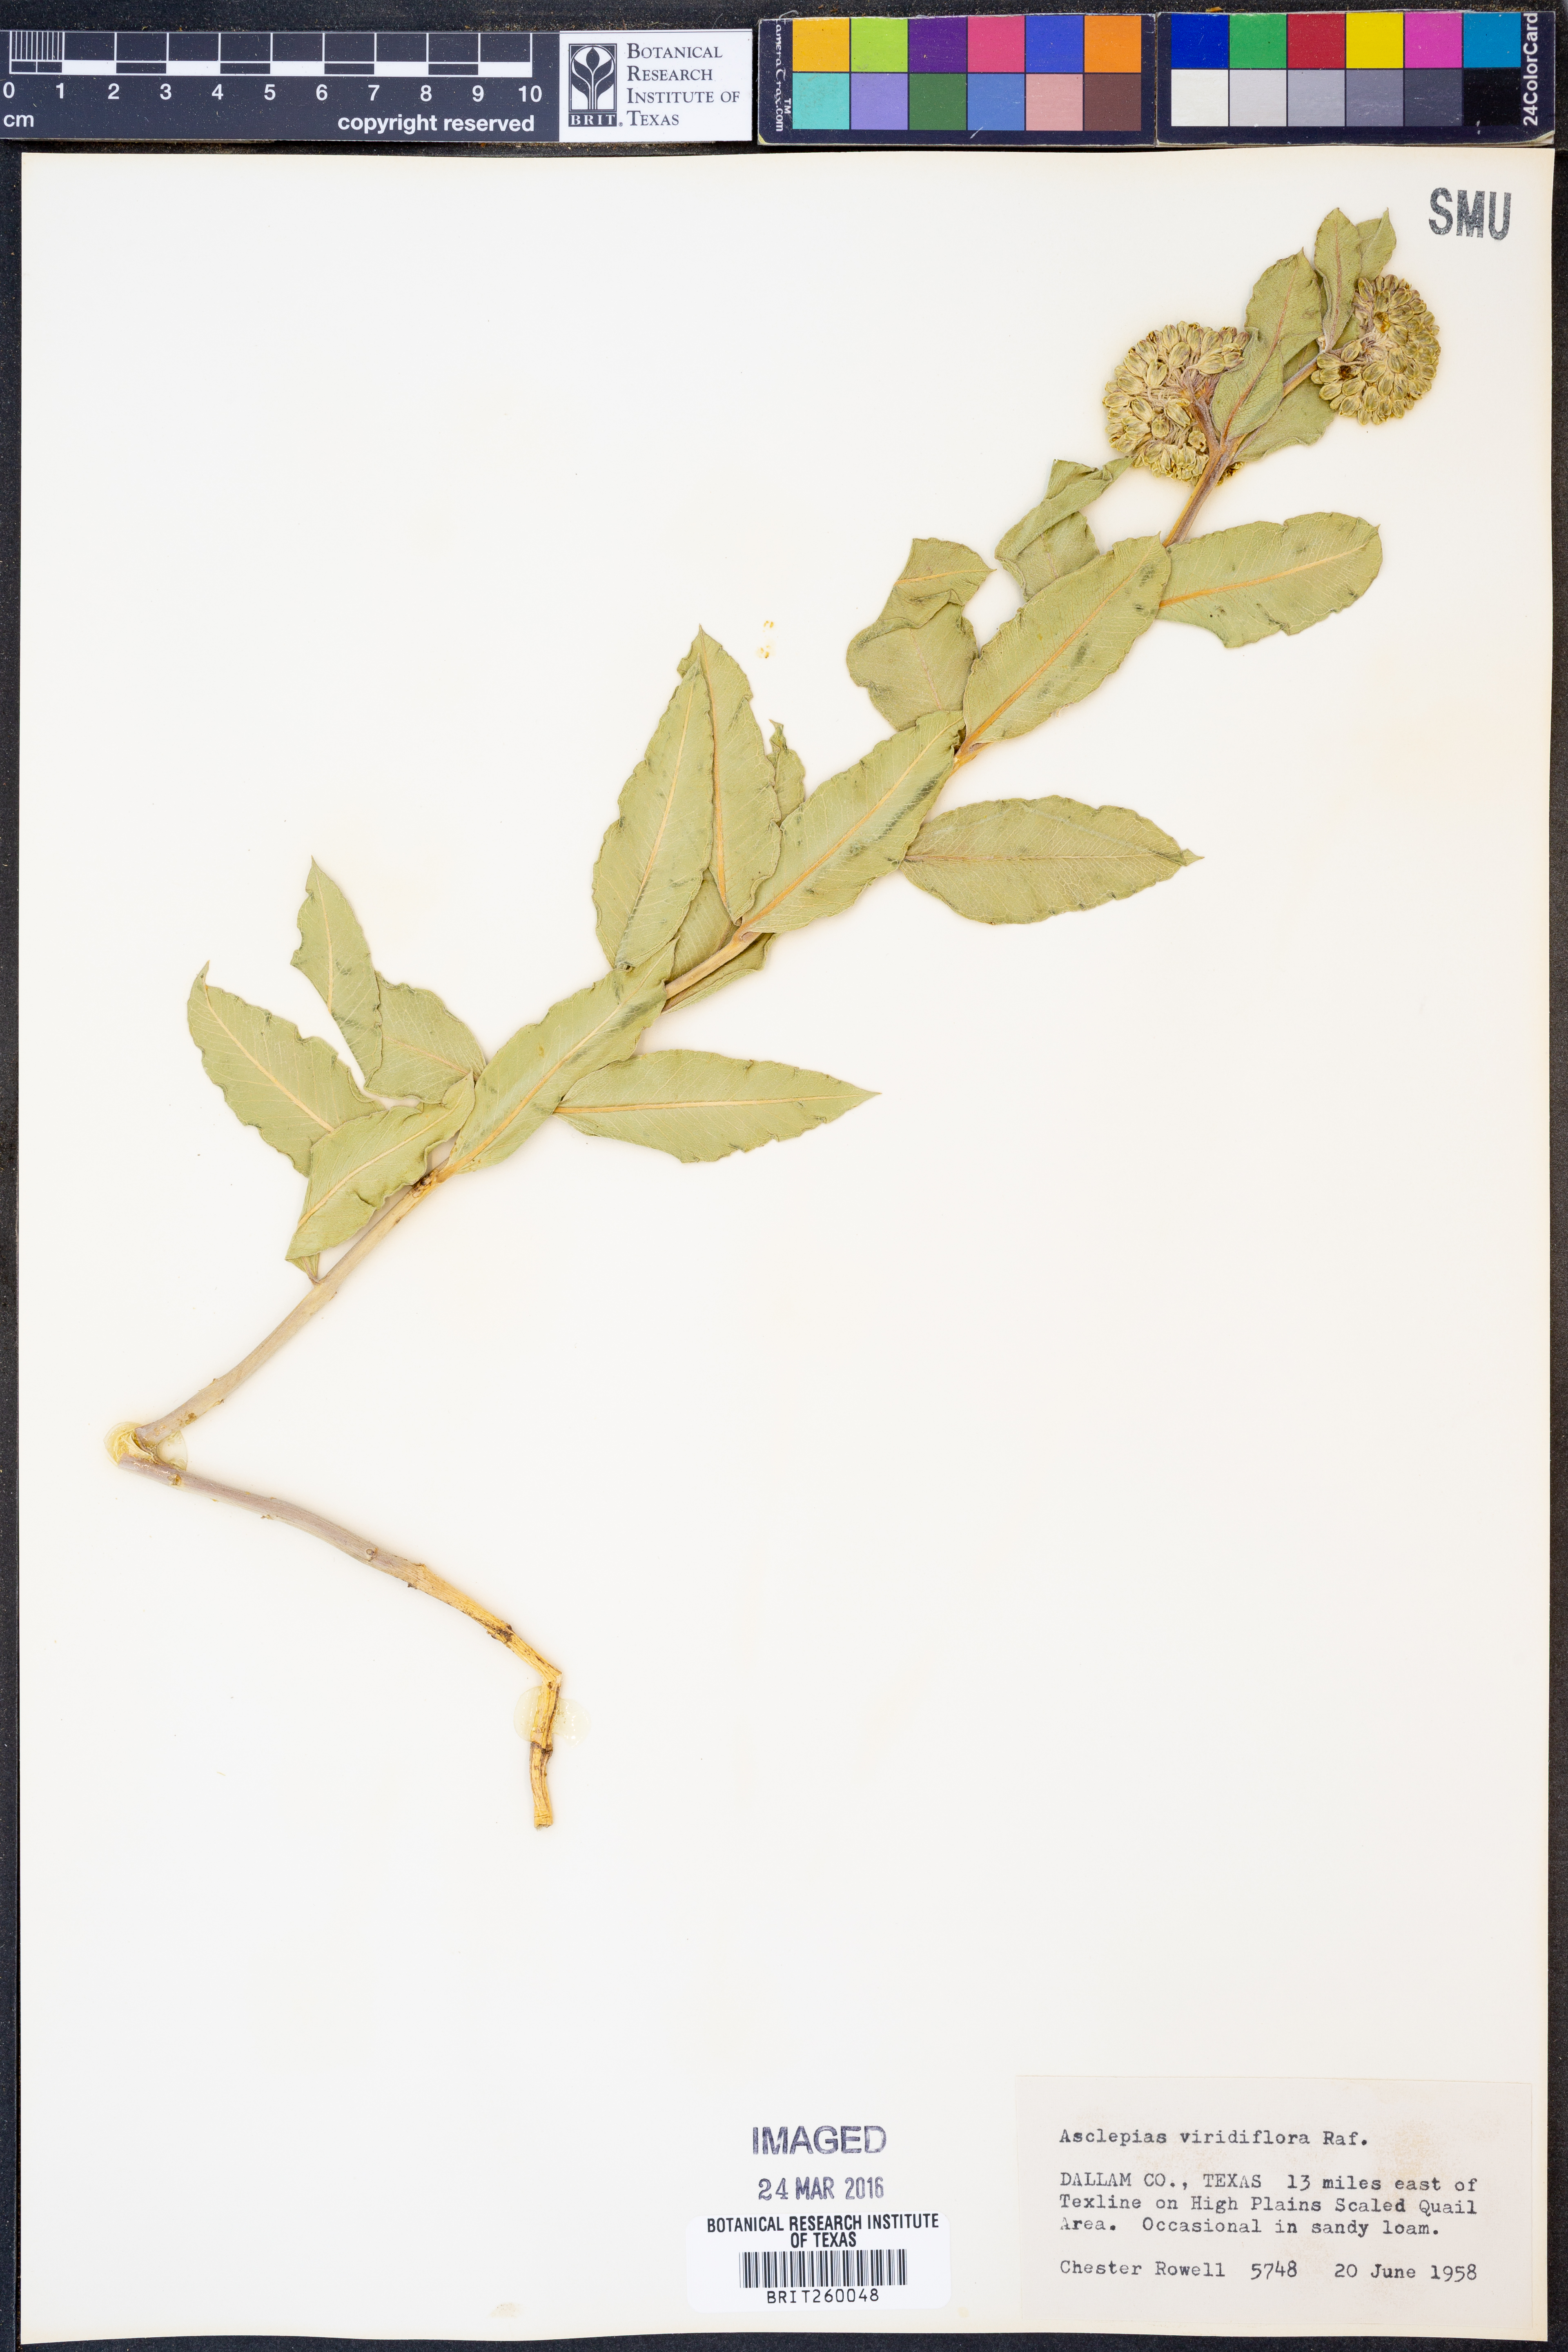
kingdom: Plantae
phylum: Tracheophyta
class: Magnoliopsida
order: Gentianales
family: Apocynaceae
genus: Asclepias
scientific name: Asclepias viridiflora
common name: Green comet milkweed
